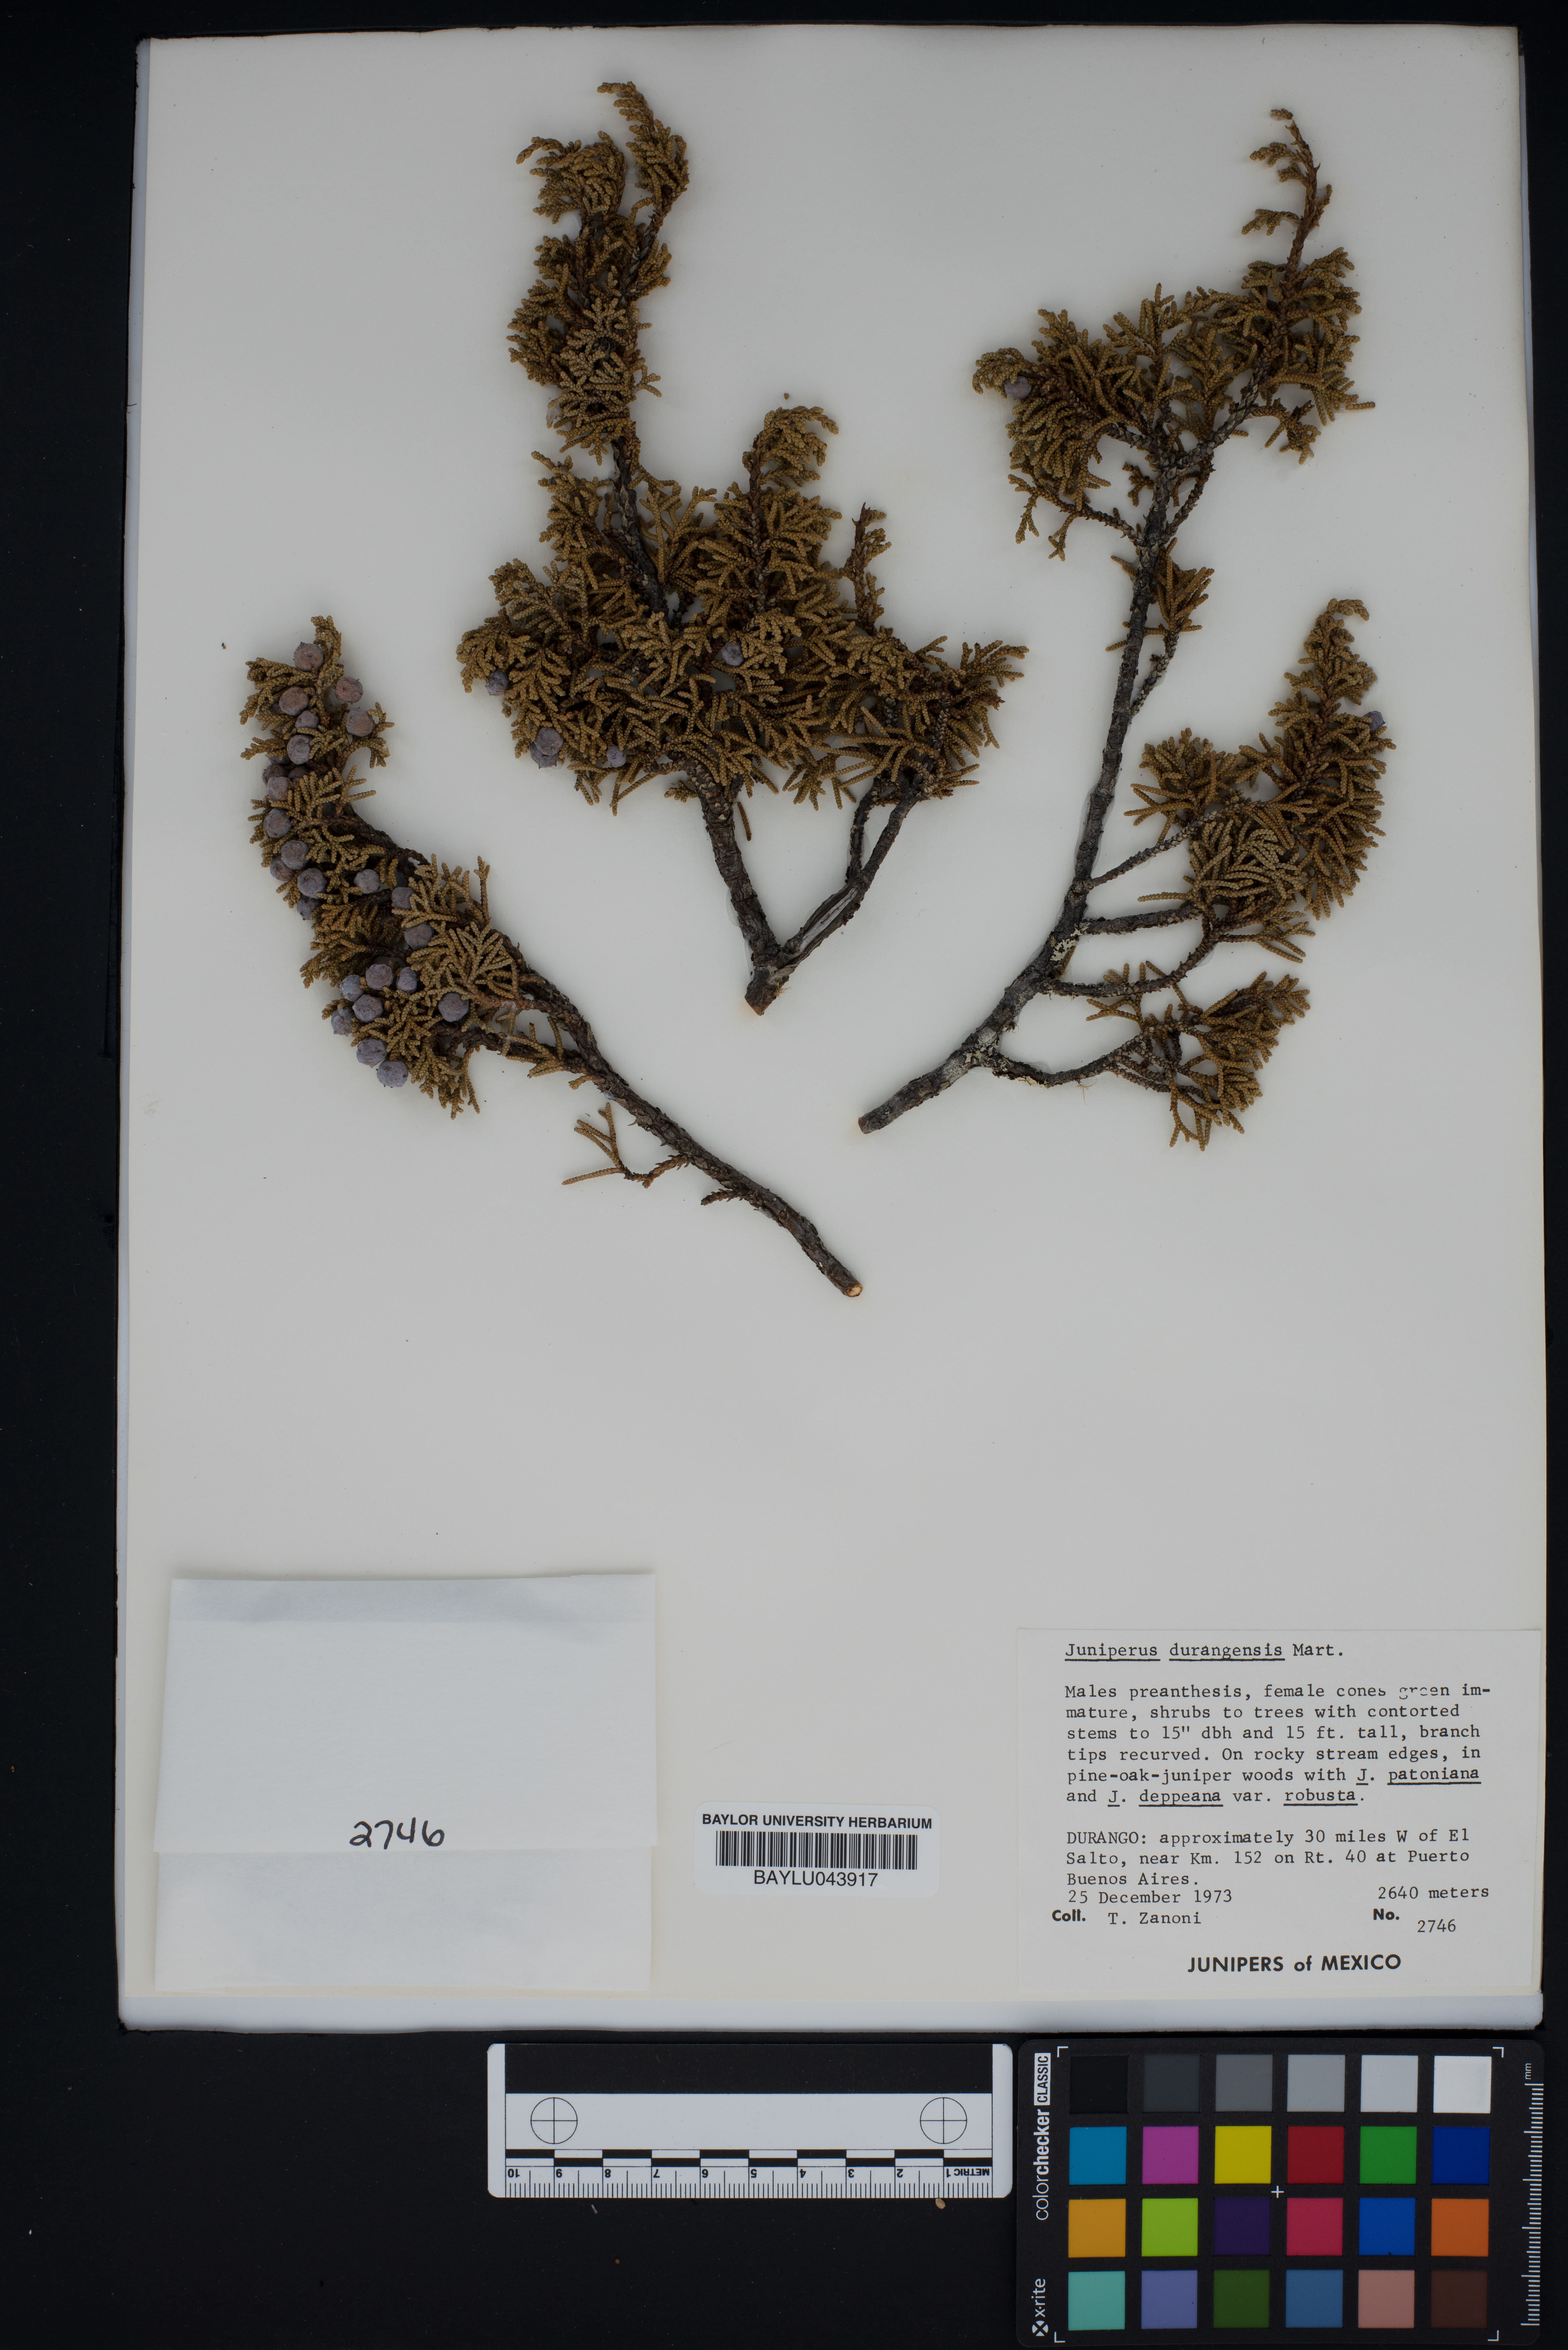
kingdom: Plantae
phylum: Tracheophyta
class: Pinopsida
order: Pinales
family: Cupressaceae
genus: Juniperus
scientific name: Juniperus durangensis
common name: Durango juniper
